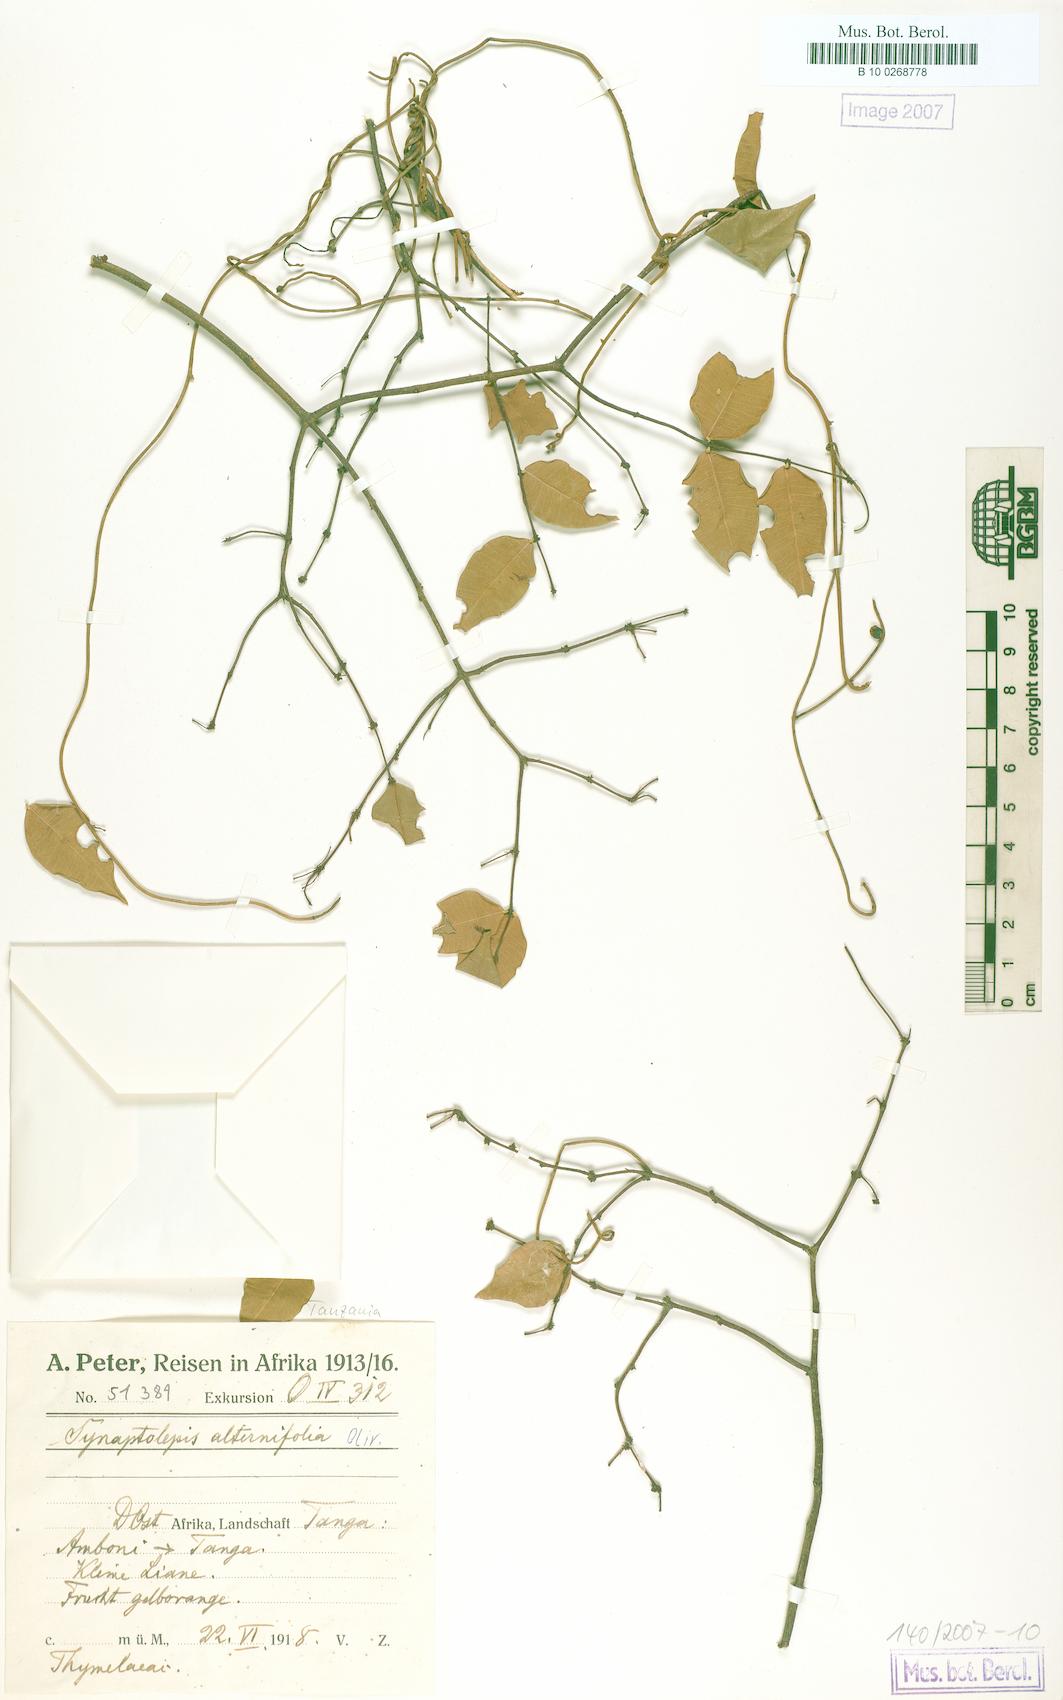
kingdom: Plantae
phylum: Tracheophyta
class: Magnoliopsida
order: Malvales
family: Thymelaeaceae
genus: Synaptolepis
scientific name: Synaptolepis alternifolia
